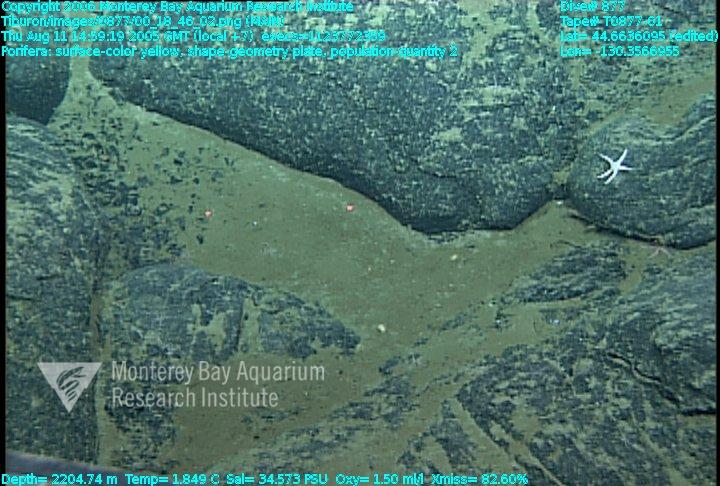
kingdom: Animalia
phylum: Porifera
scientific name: Porifera
